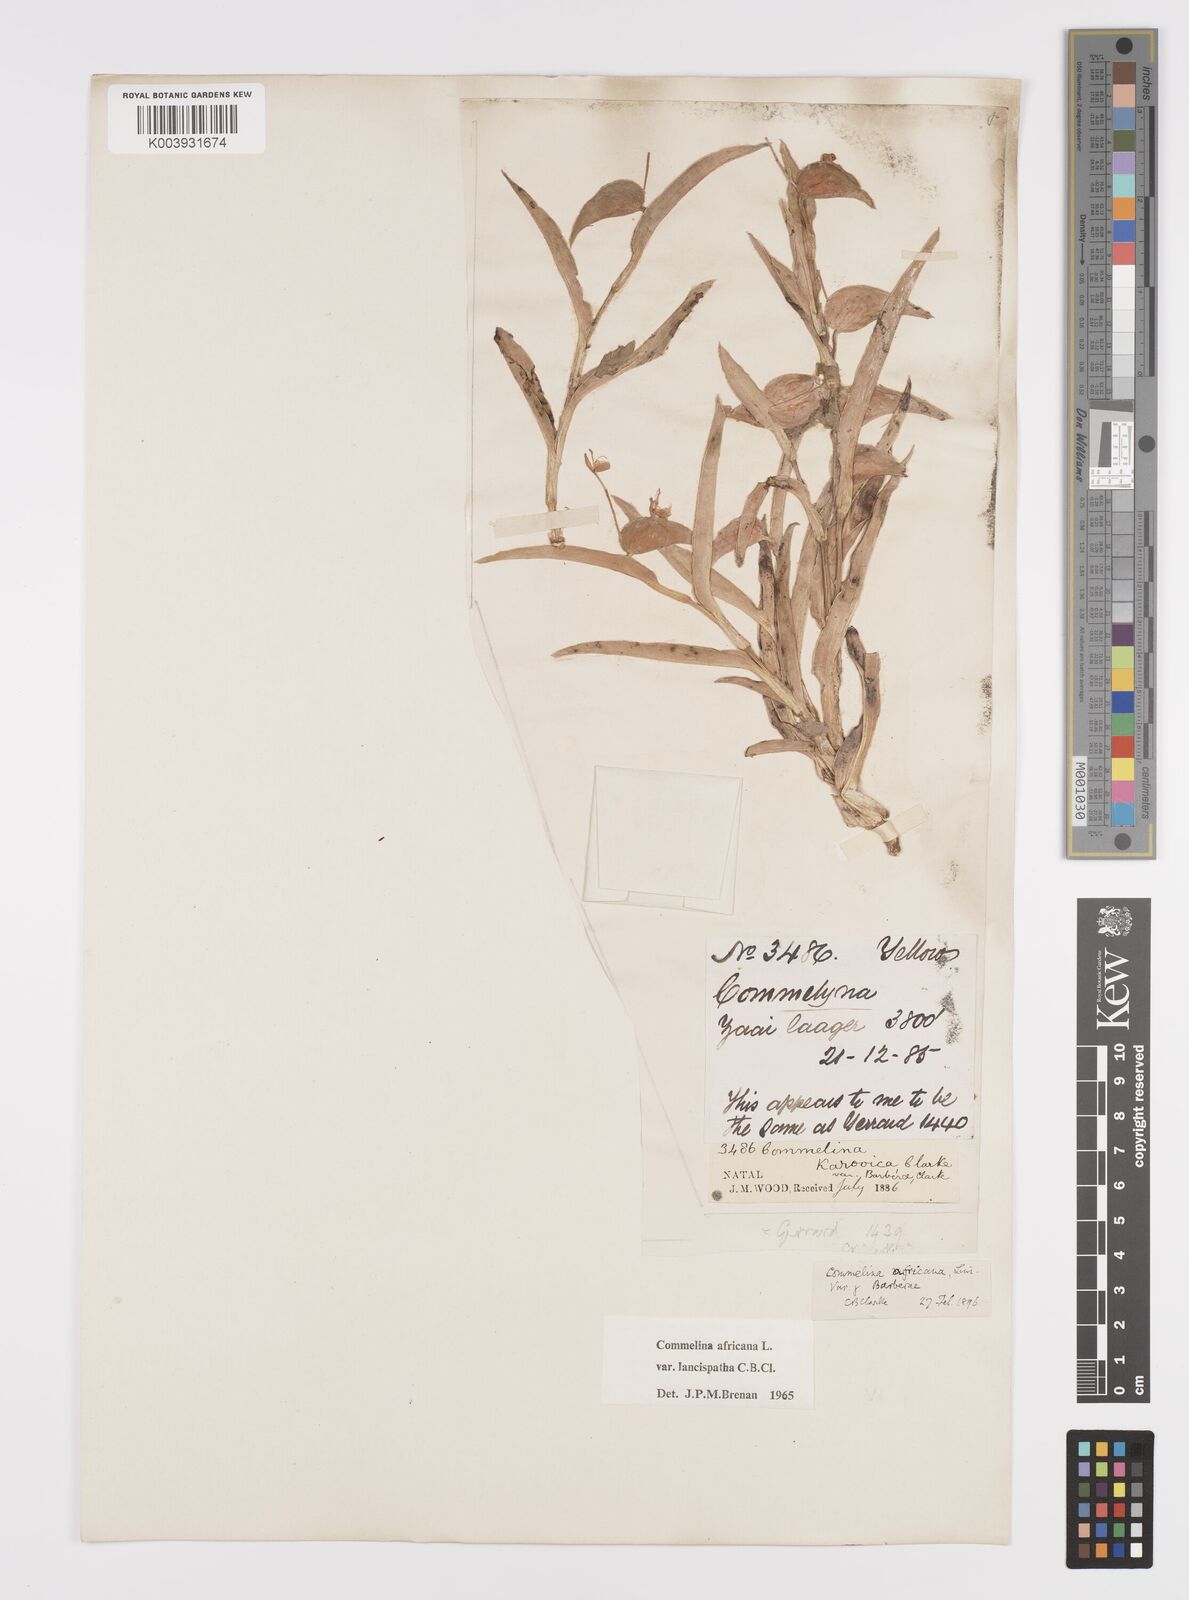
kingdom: Plantae
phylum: Tracheophyta
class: Liliopsida
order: Commelinales
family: Commelinaceae
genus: Commelina
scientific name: Commelina africana
